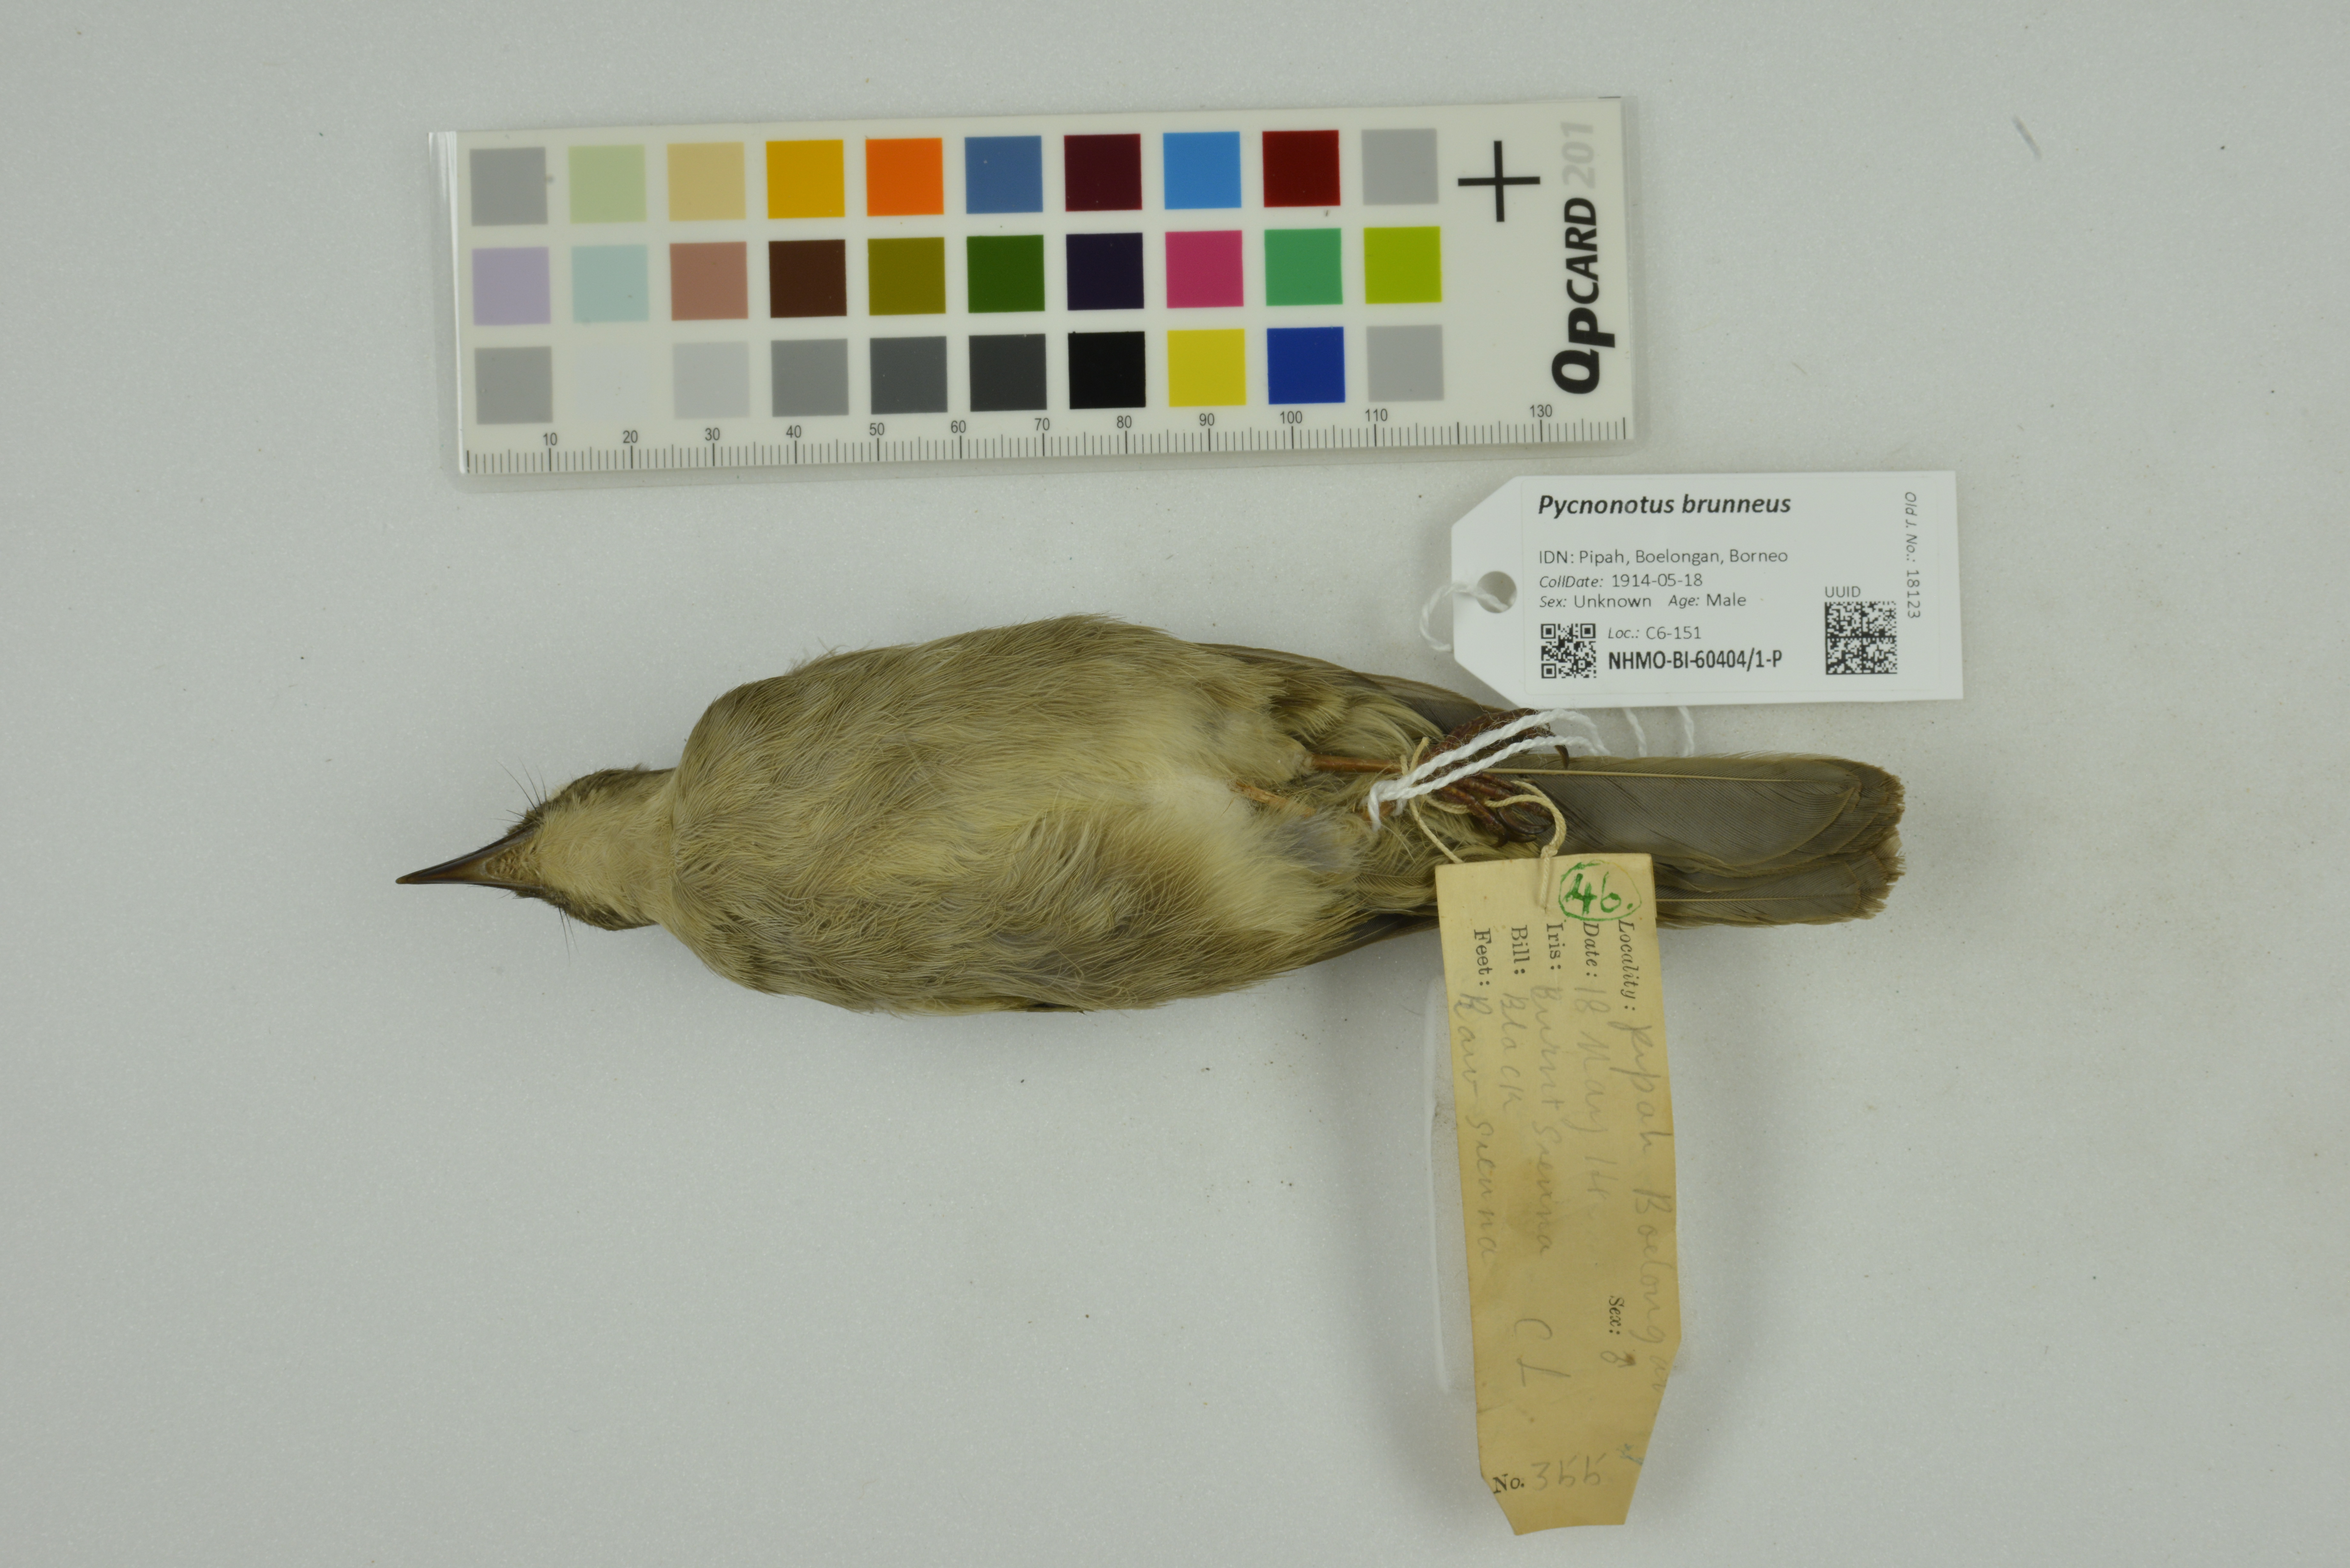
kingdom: Animalia
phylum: Chordata
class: Aves
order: Passeriformes
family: Pycnonotidae
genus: Pycnonotus
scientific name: Pycnonotus brunneus
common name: Asian red-eyed bulbul
